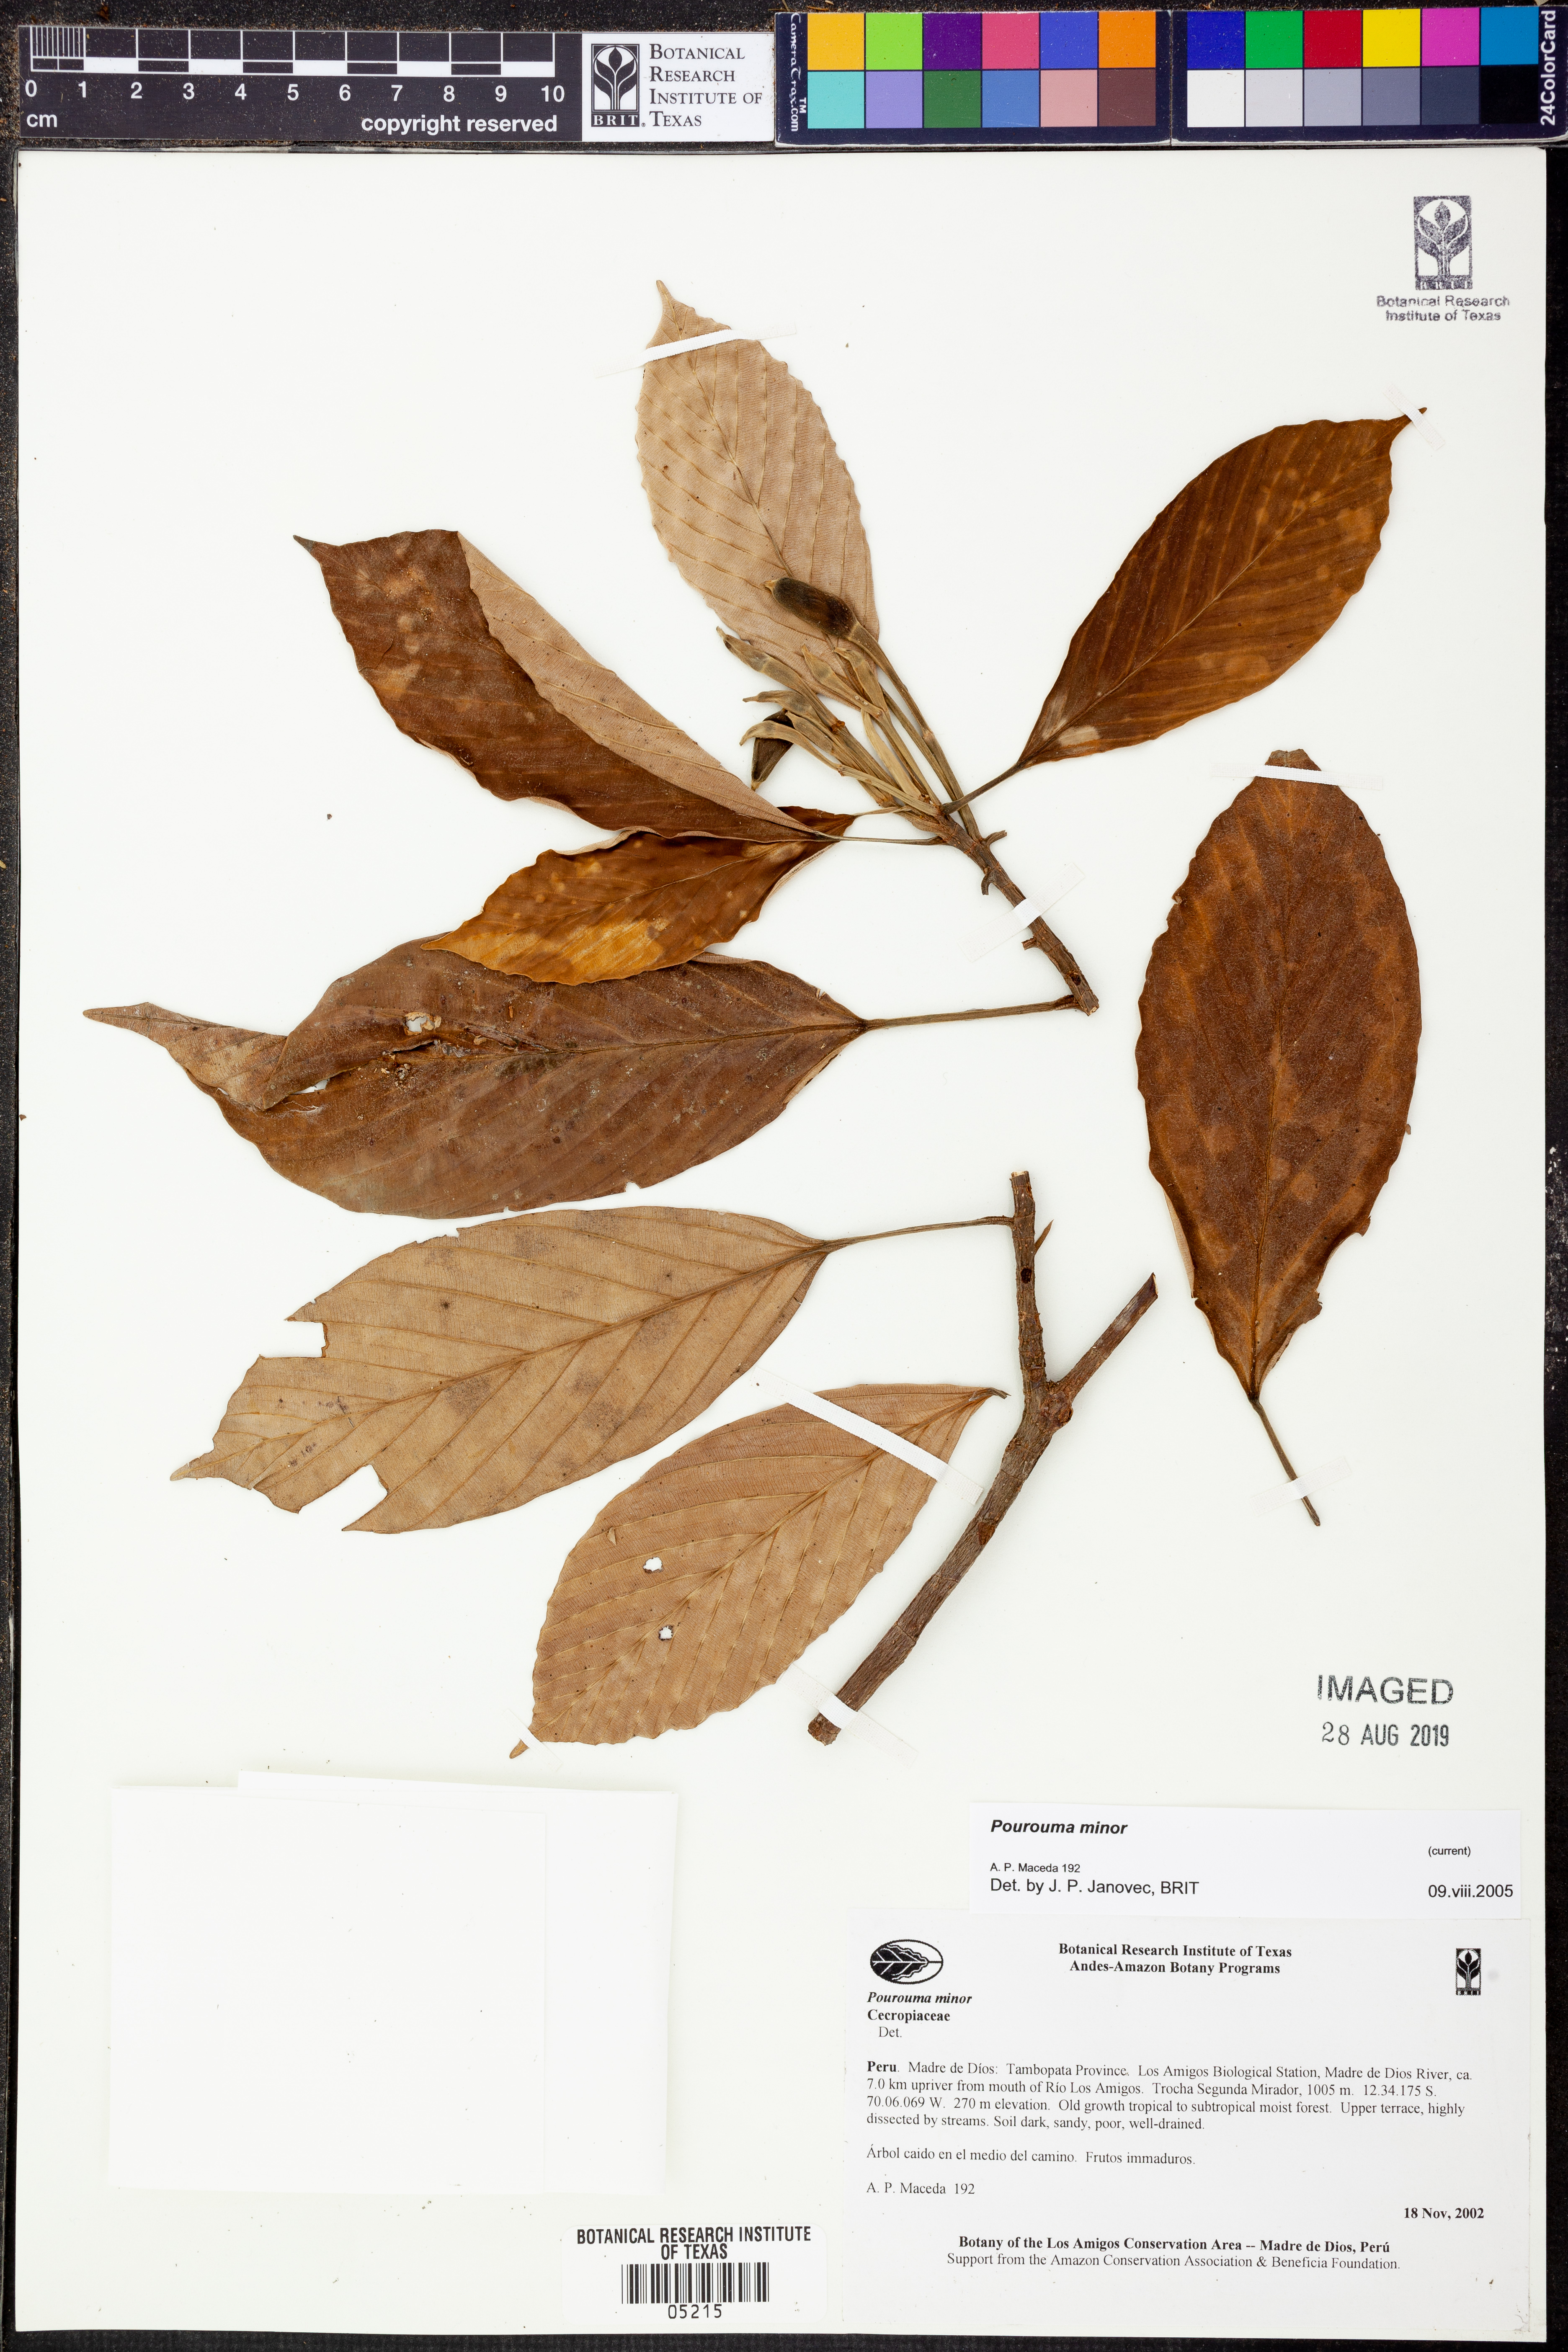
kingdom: Plantae
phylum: Tracheophyta
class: Magnoliopsida
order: Rosales
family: Urticaceae
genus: Pourouma
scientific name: Pourouma
